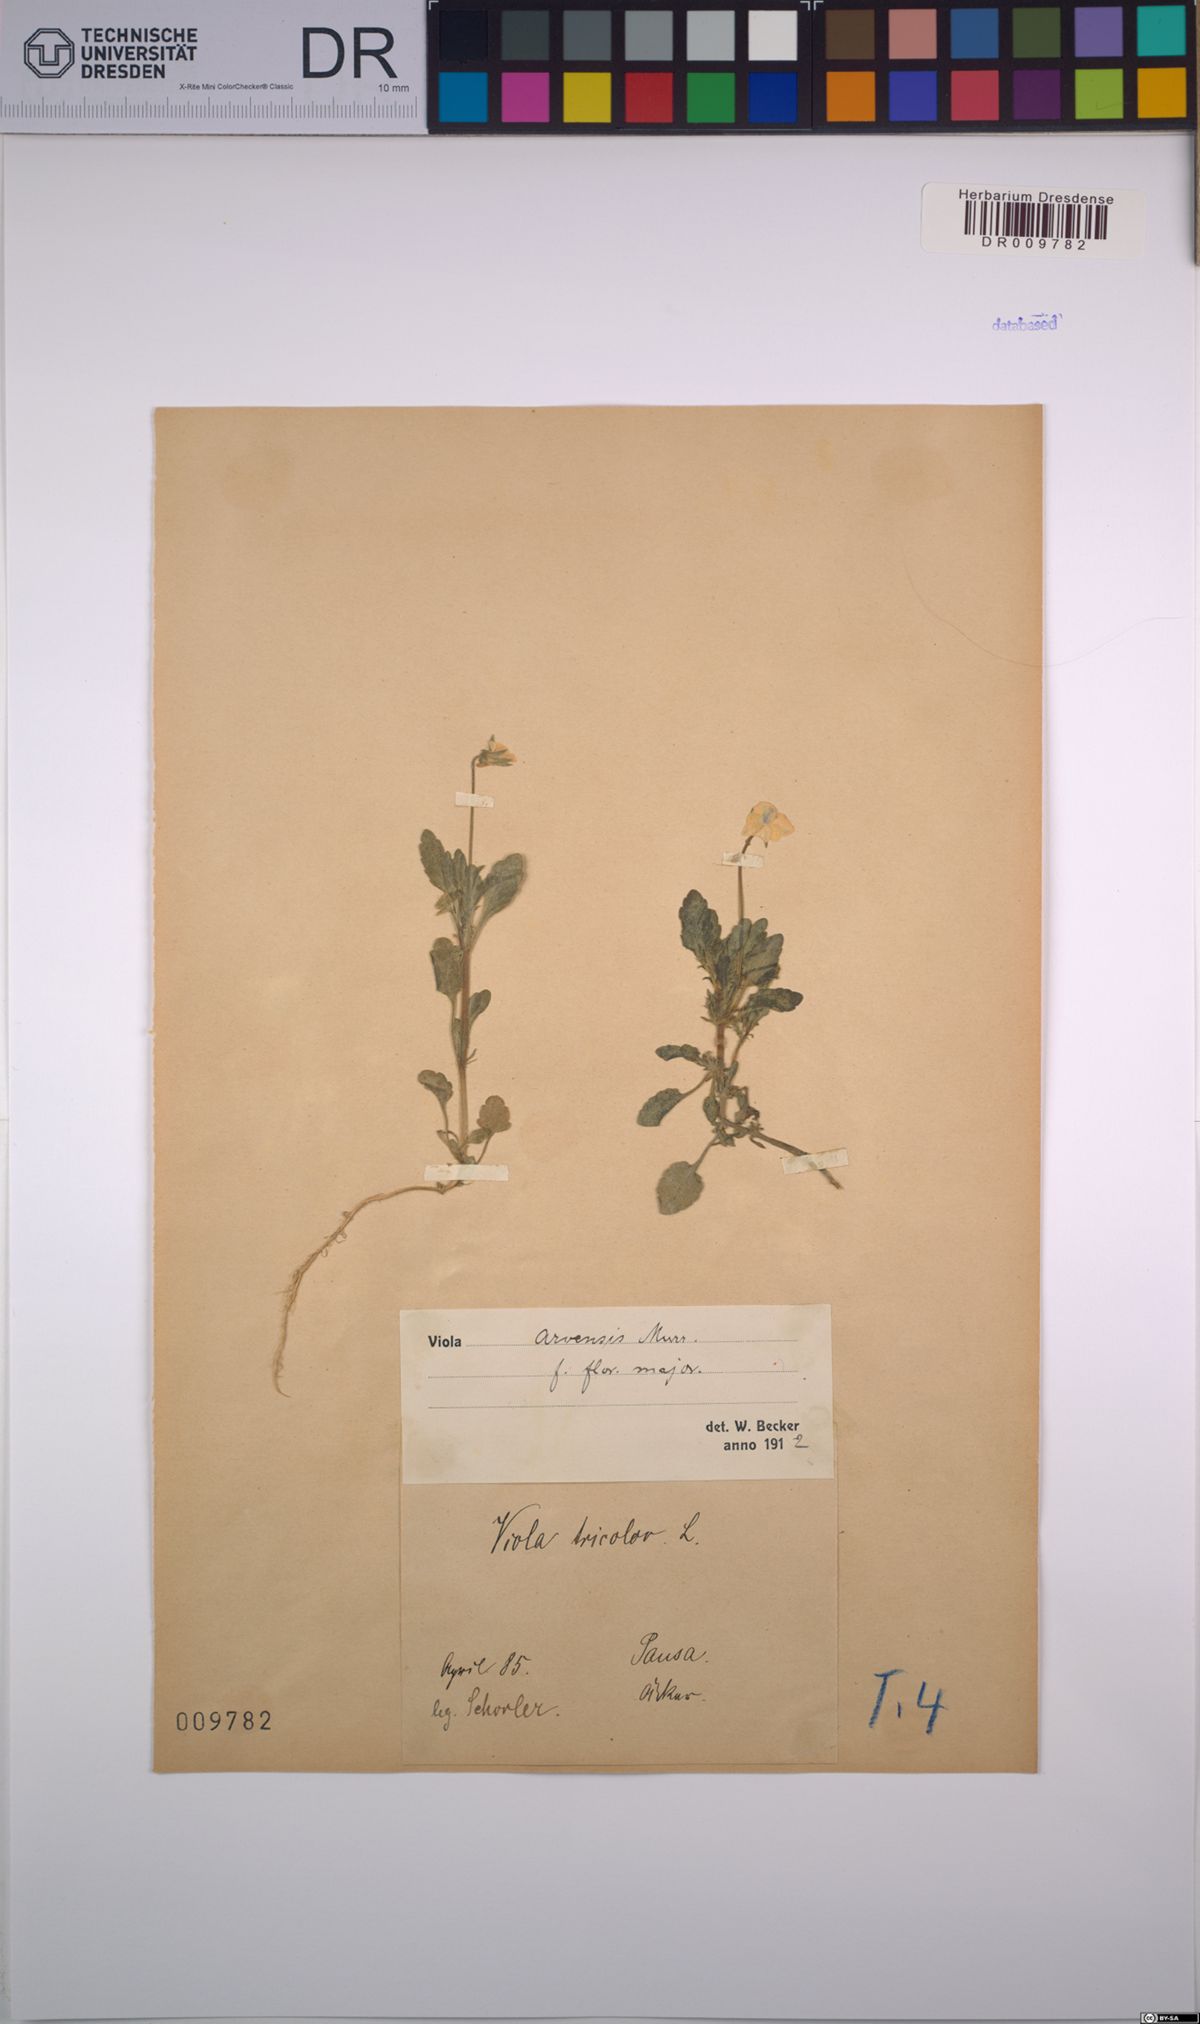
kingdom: Plantae
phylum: Tracheophyta
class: Magnoliopsida
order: Malpighiales
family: Violaceae
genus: Viola
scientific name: Viola arvensis
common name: Field pansy
